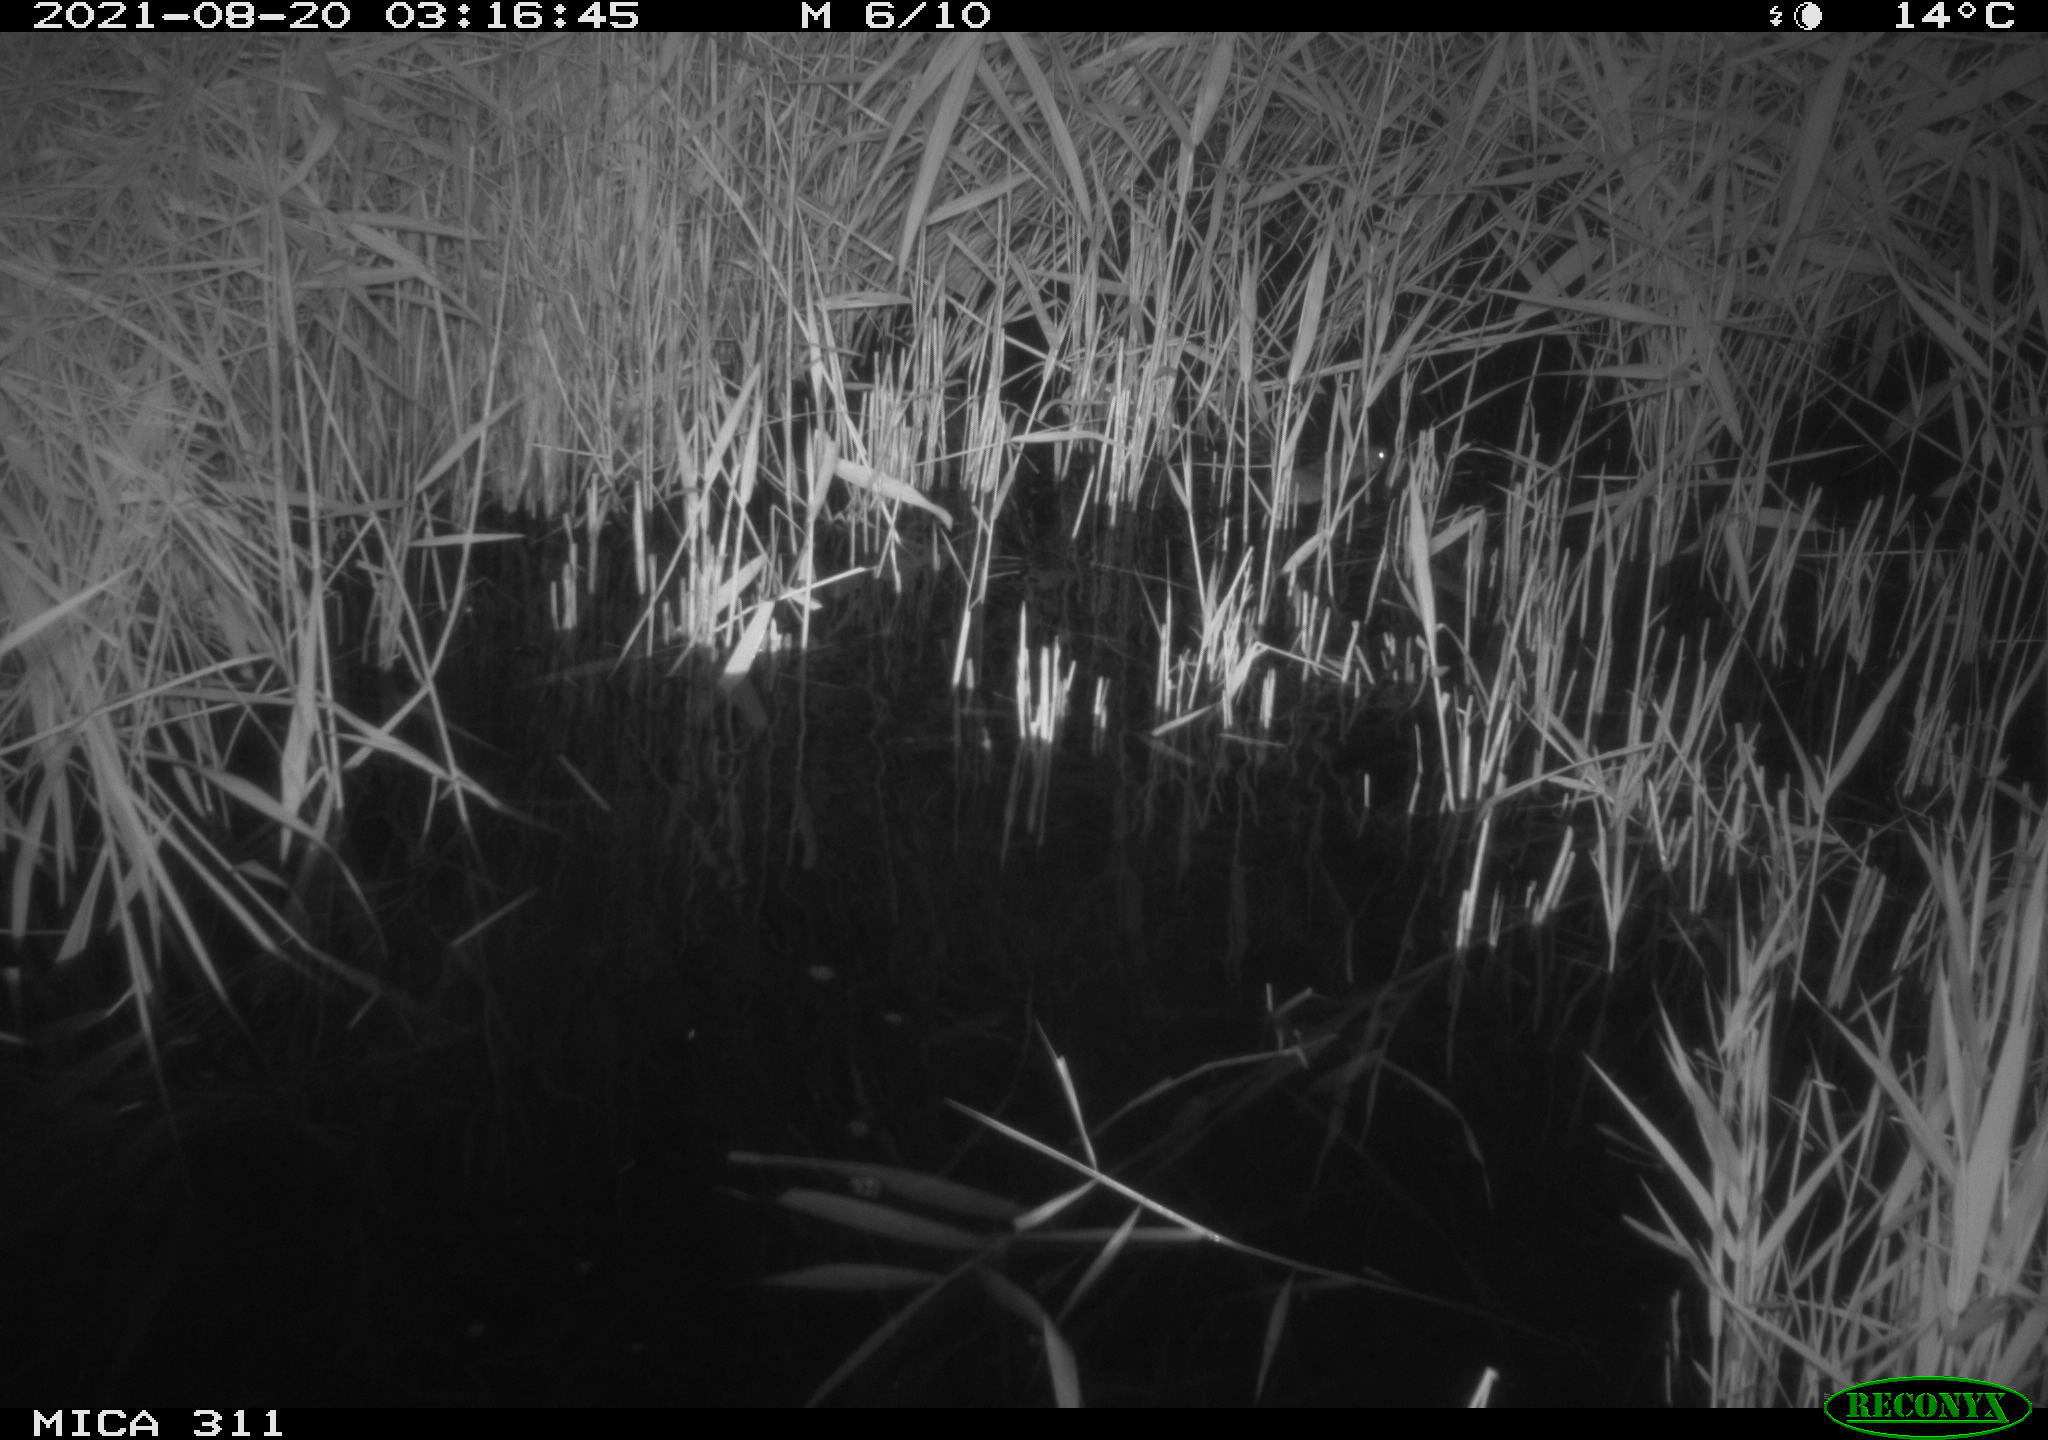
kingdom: Animalia
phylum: Chordata
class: Mammalia
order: Rodentia
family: Muridae
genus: Rattus
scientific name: Rattus norvegicus
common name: Brown rat
